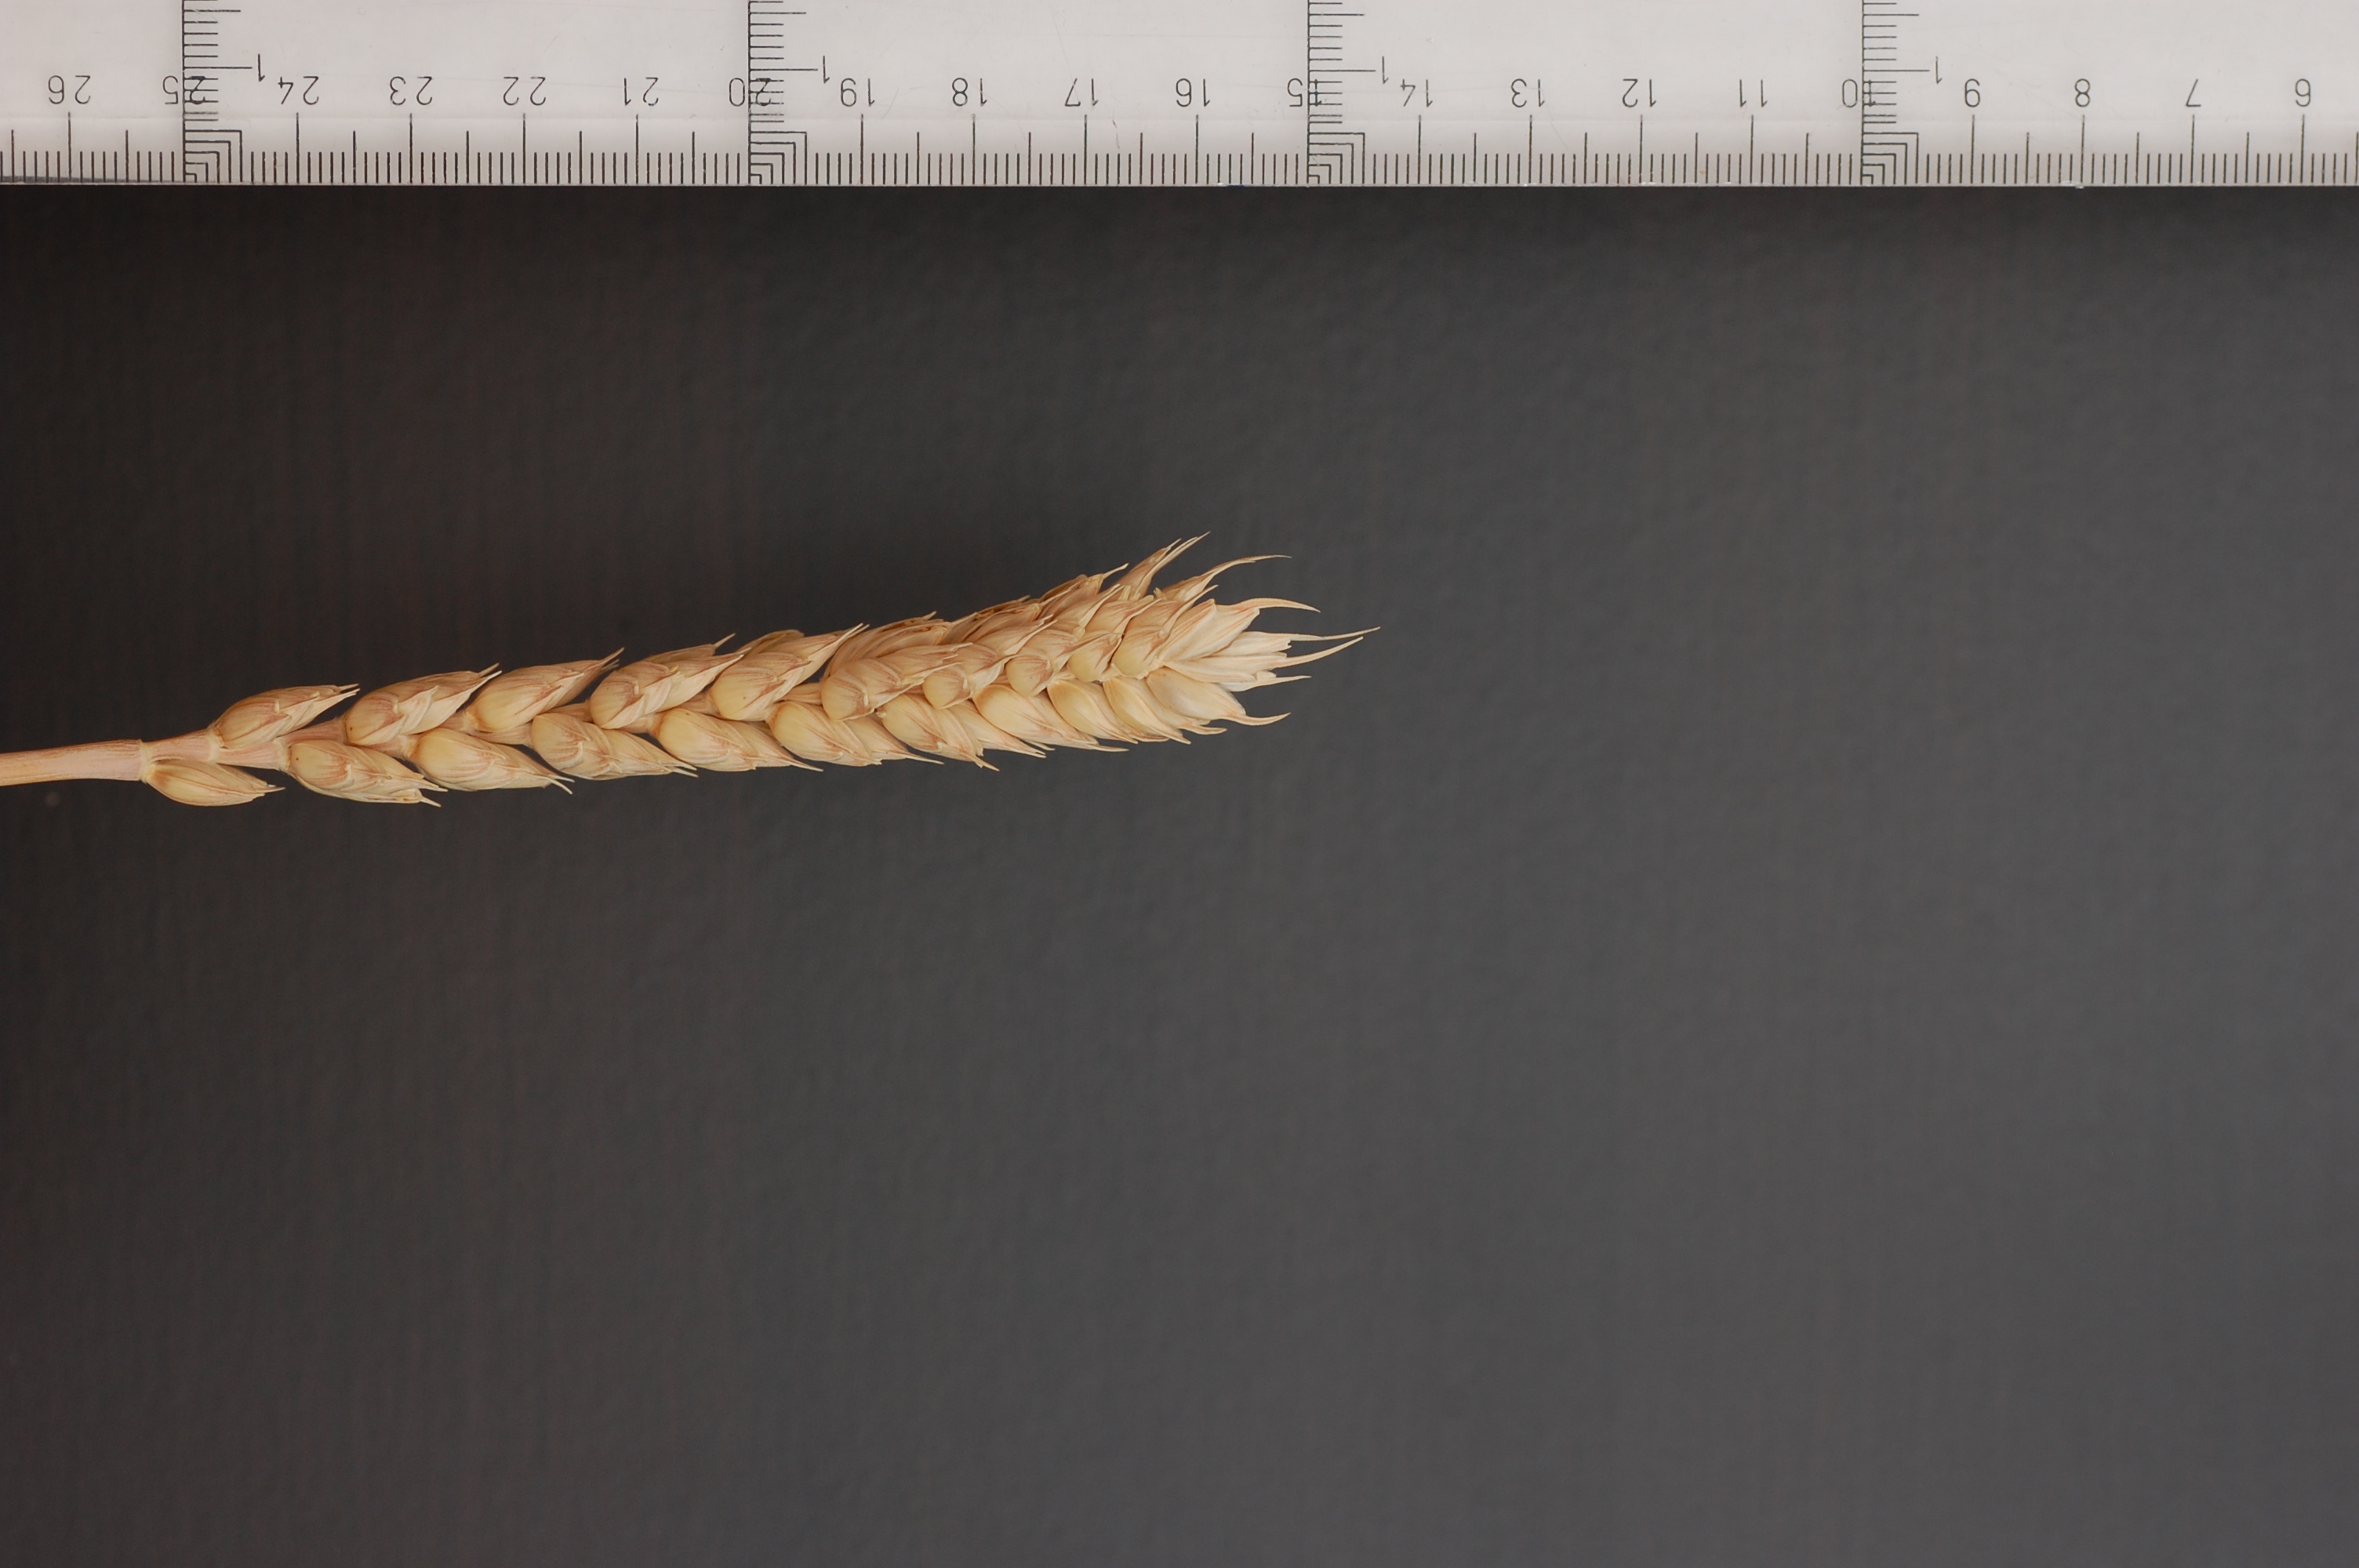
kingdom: Plantae
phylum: Tracheophyta
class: Liliopsida
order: Poales
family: Poaceae
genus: Triticum
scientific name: Triticum aestivum
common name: Common wheat
